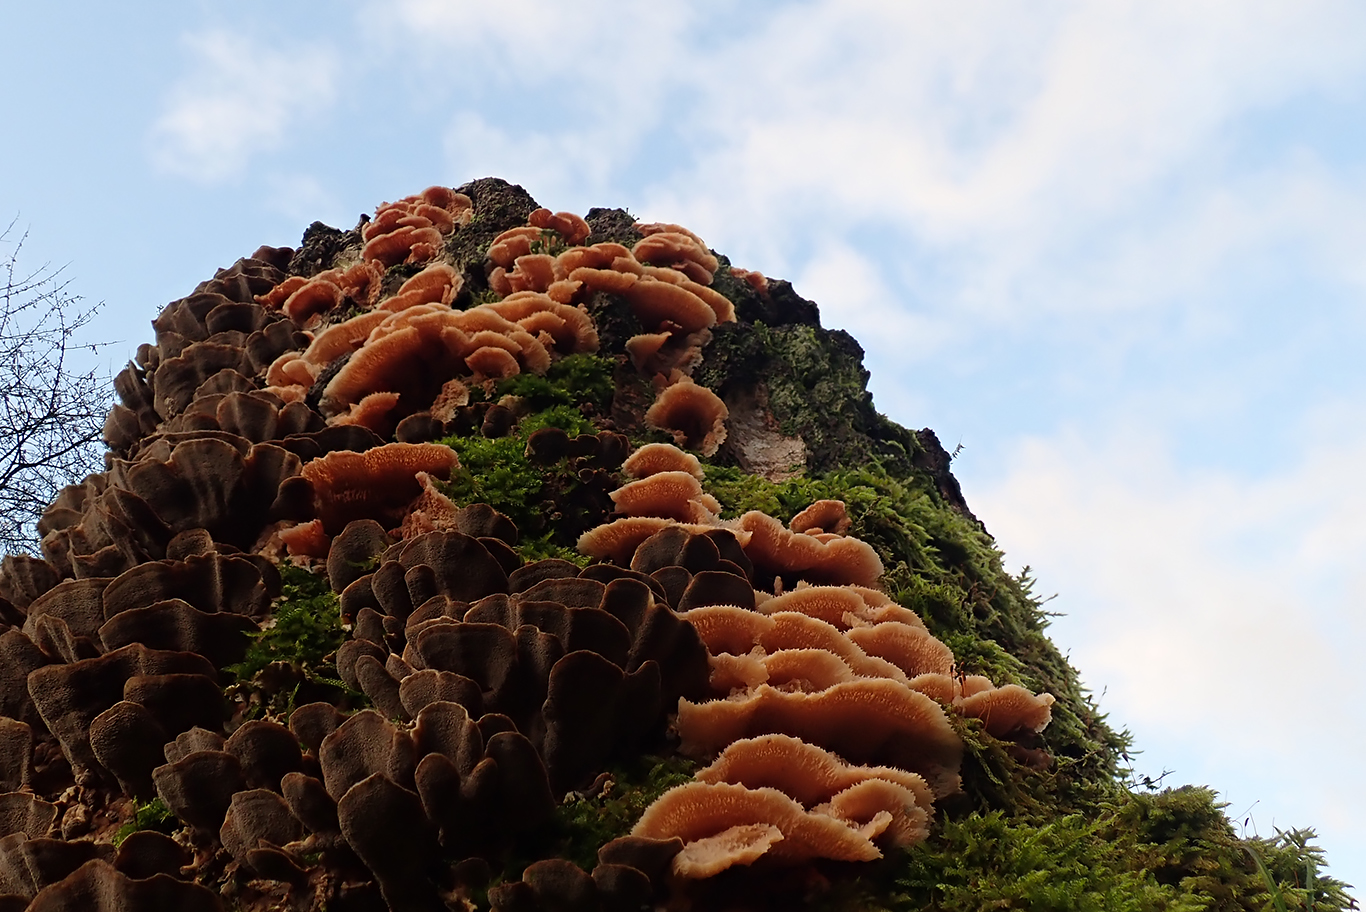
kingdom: Fungi
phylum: Basidiomycota
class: Agaricomycetes
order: Polyporales
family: Meruliaceae
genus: Phlebia
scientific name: Phlebia tremellosa
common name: bævrende åresvamp
